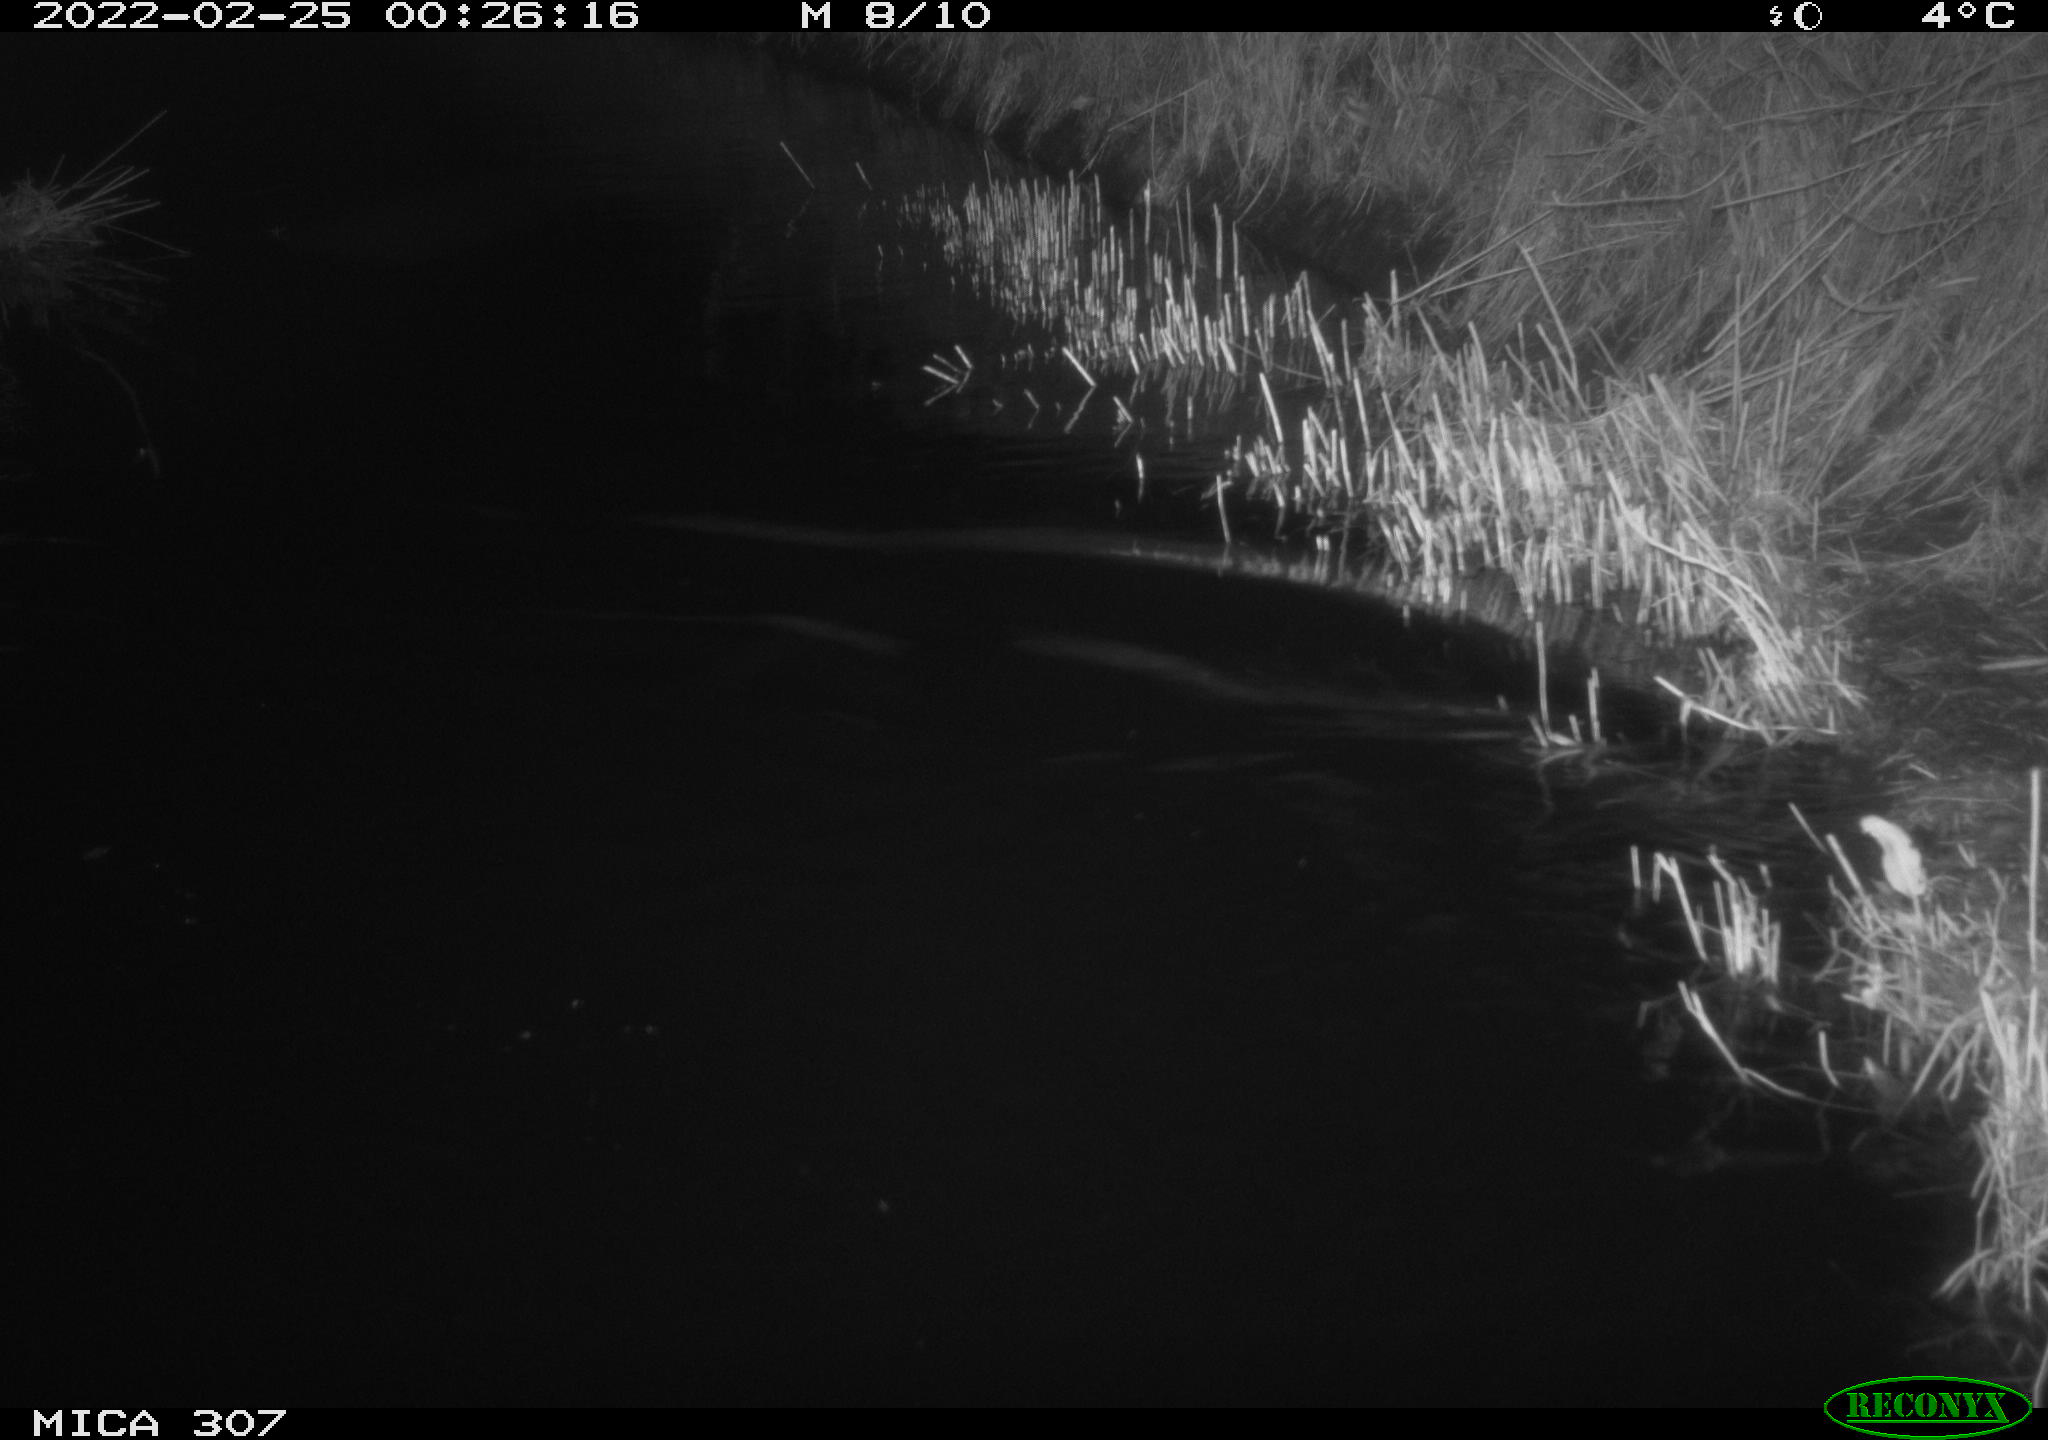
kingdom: Animalia
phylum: Chordata
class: Mammalia
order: Rodentia
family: Muridae
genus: Rattus
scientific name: Rattus norvegicus
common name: Brown rat
